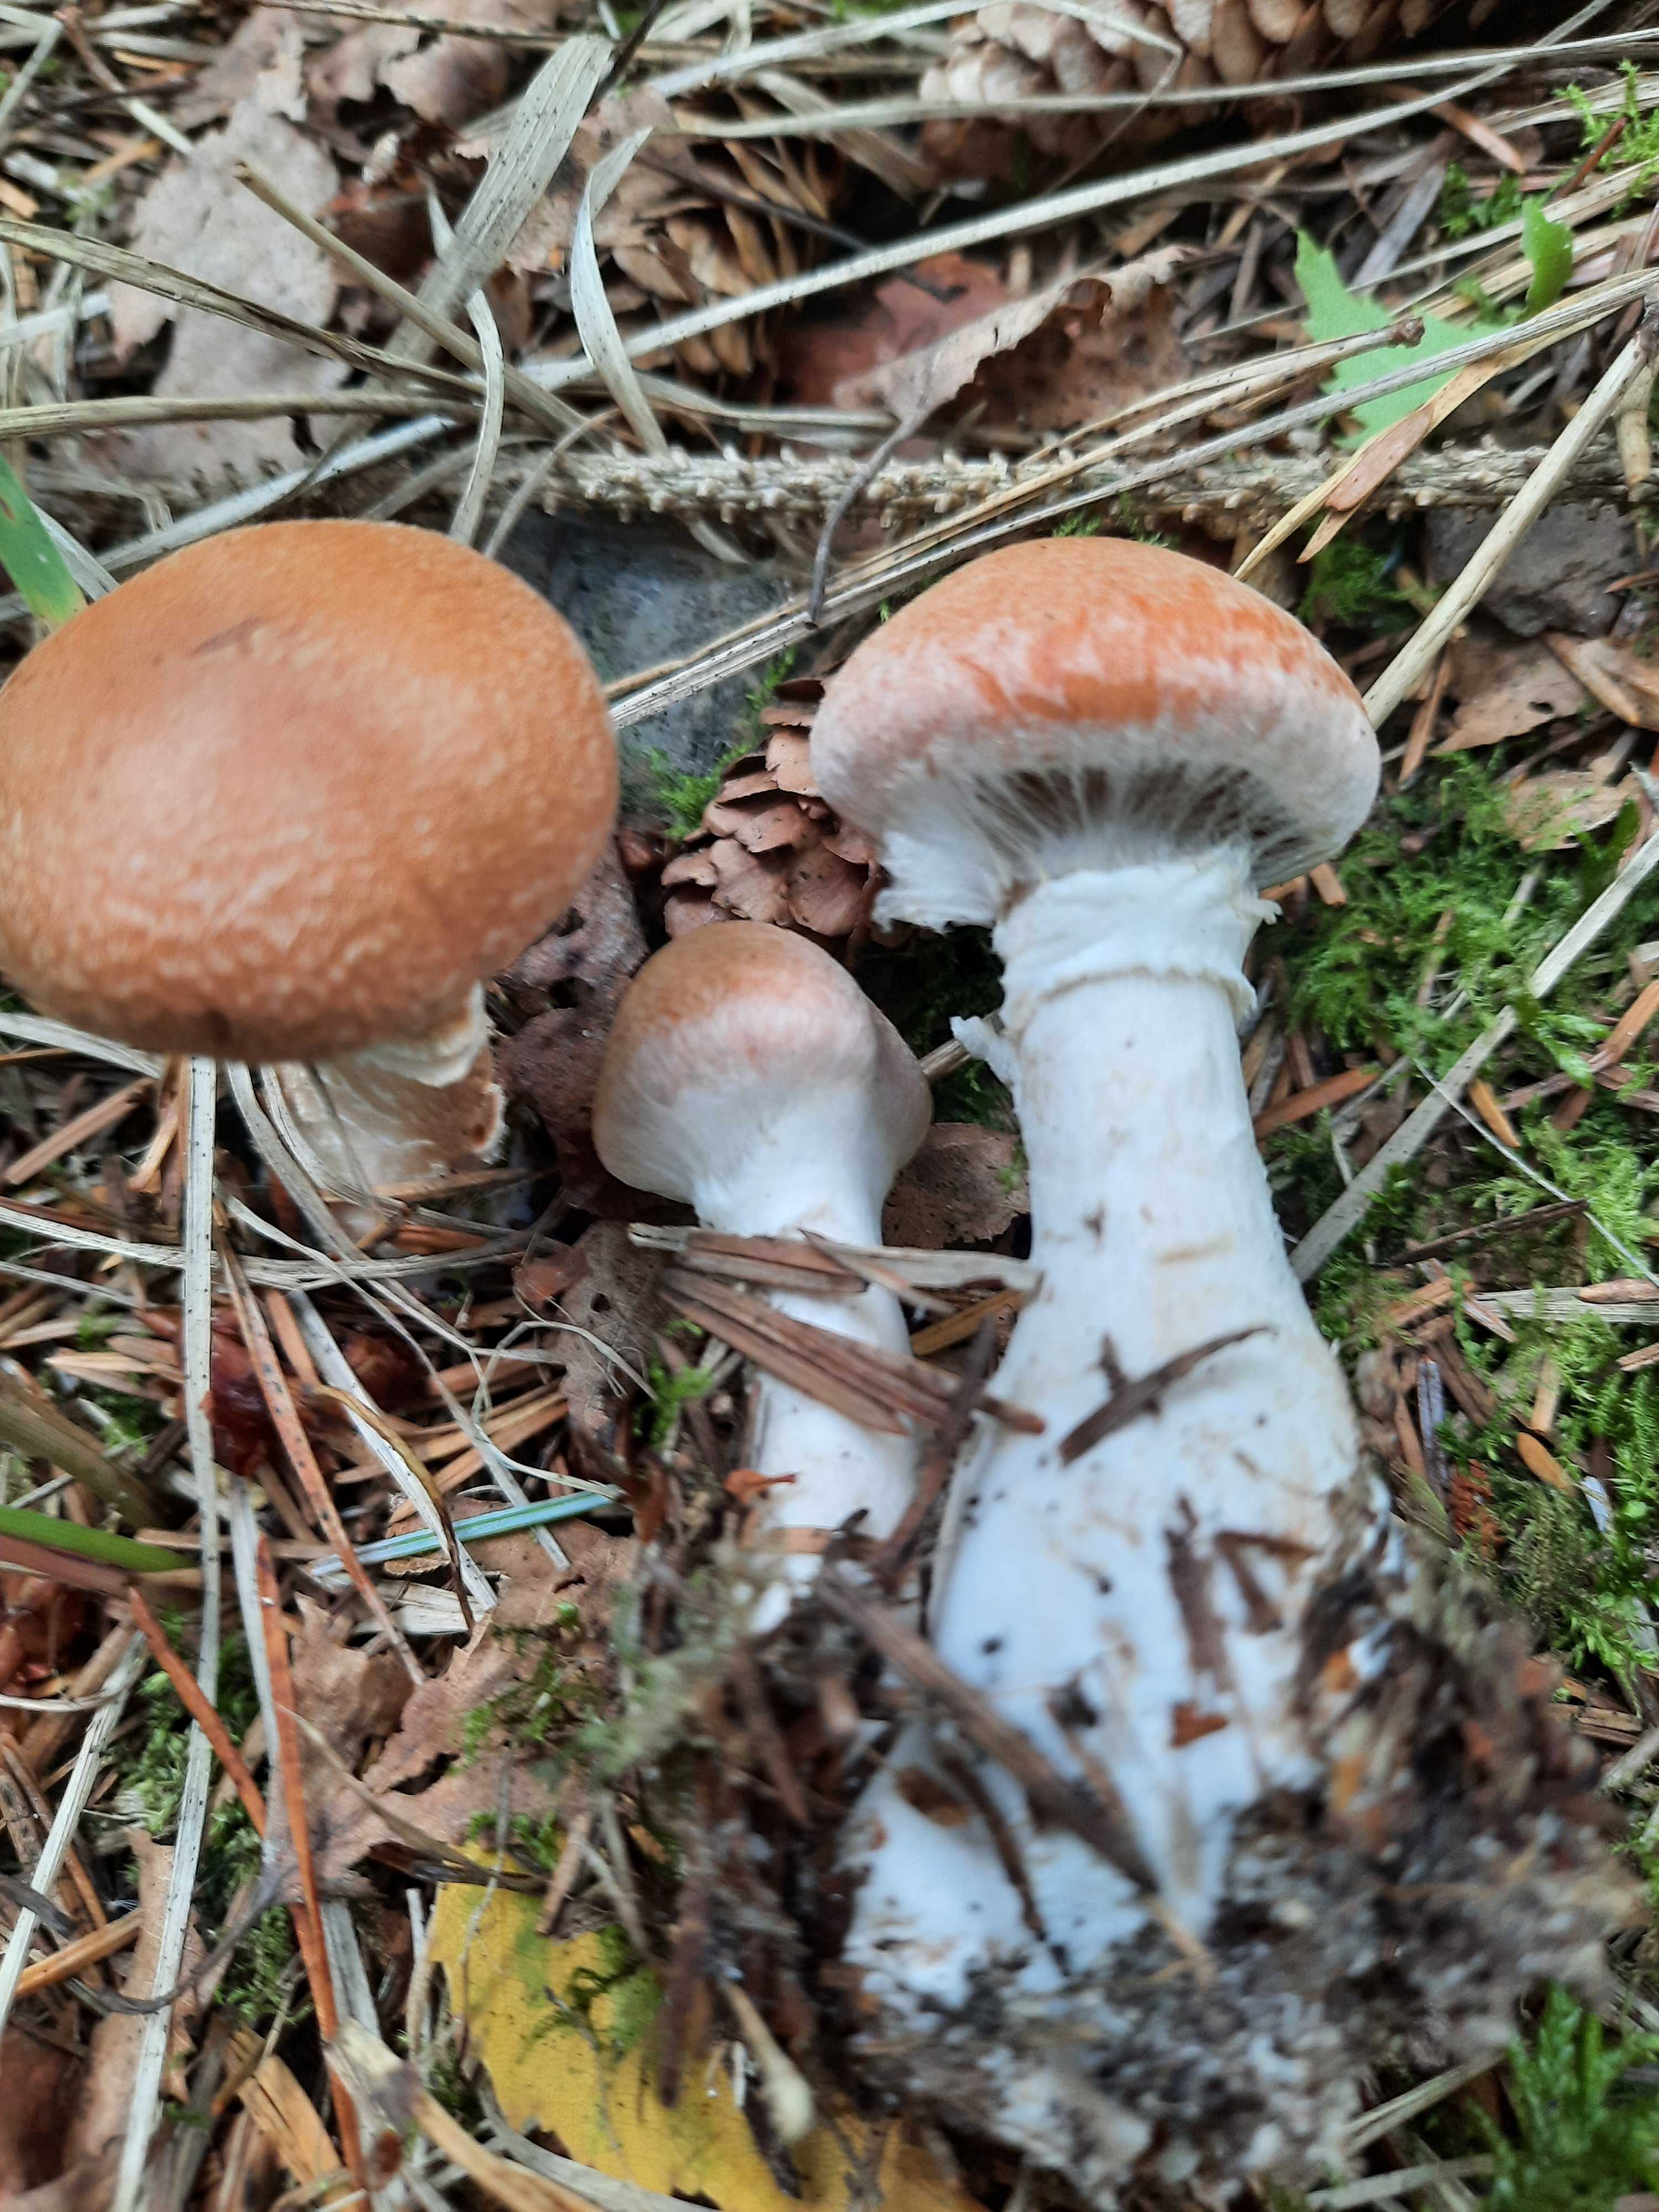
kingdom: Fungi
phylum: Basidiomycota
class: Agaricomycetes
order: Agaricales
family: Cortinariaceae
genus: Cortinarius
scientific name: Cortinarius laniger
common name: teglbladet slørhat
